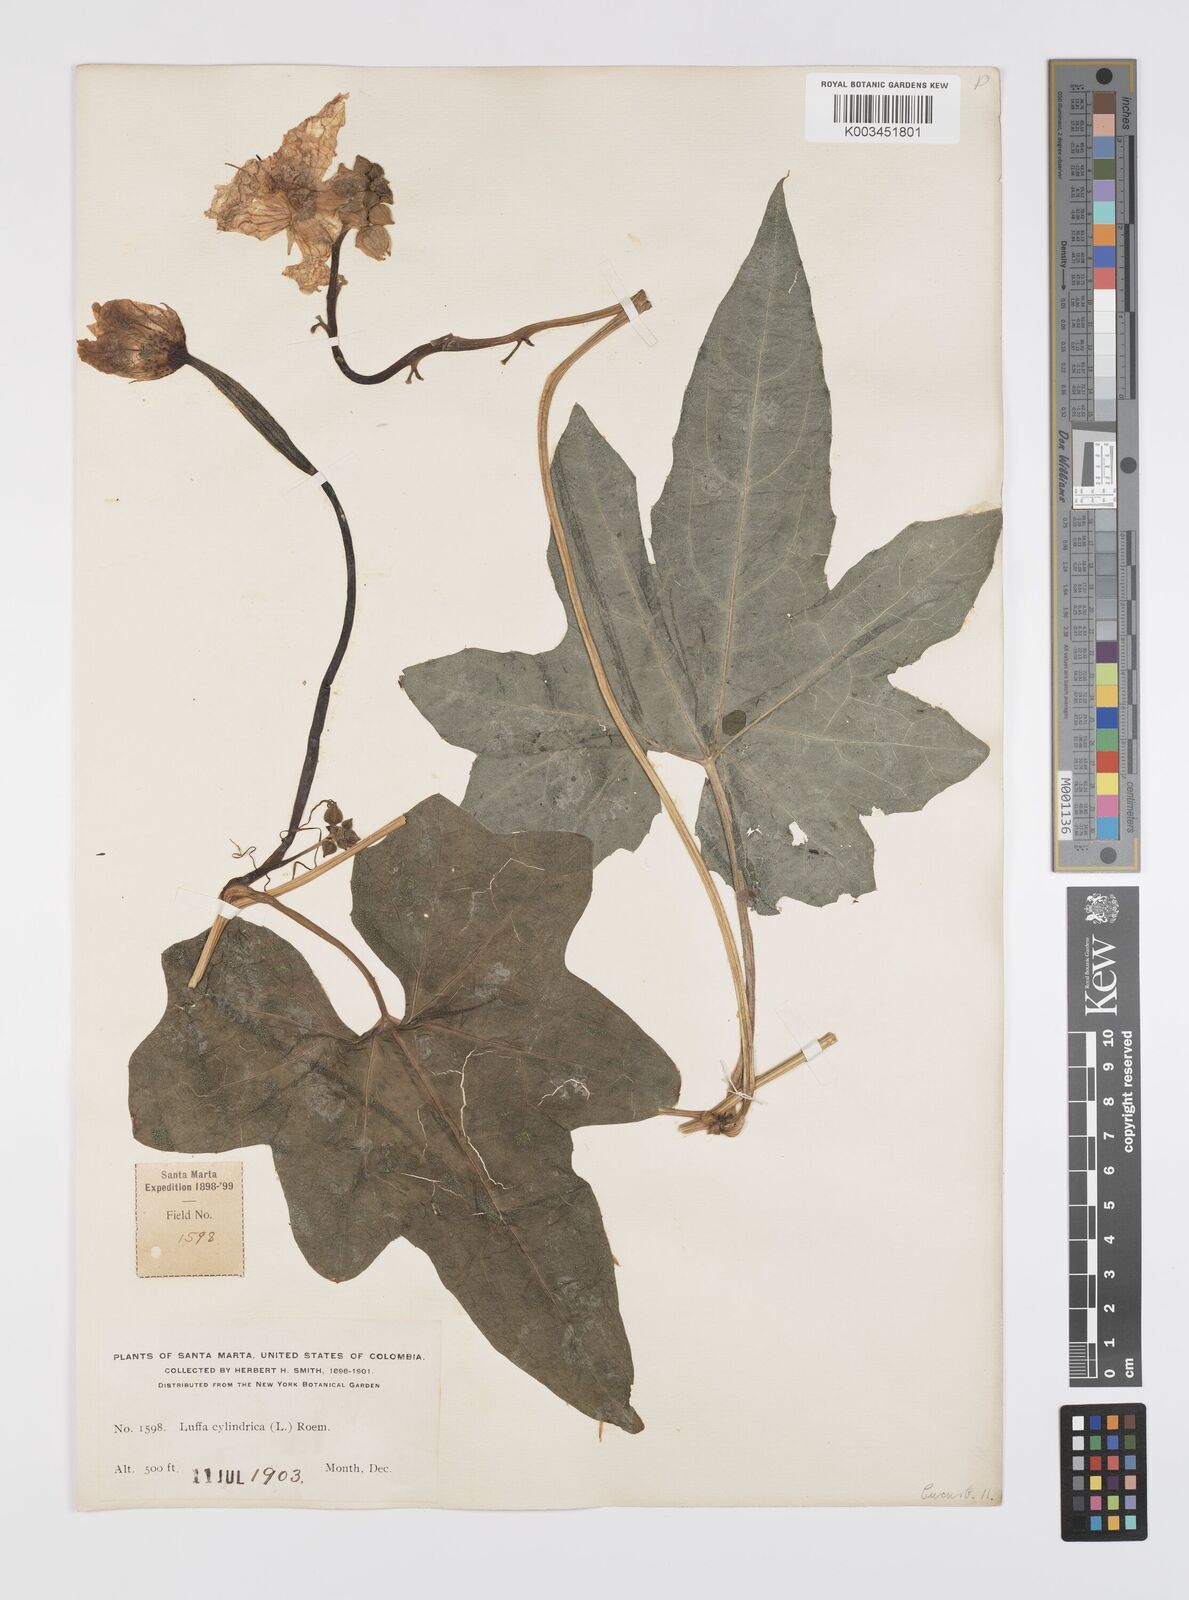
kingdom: Plantae
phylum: Tracheophyta
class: Magnoliopsida
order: Cucurbitales
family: Cucurbitaceae
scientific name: Cucurbitaceae
